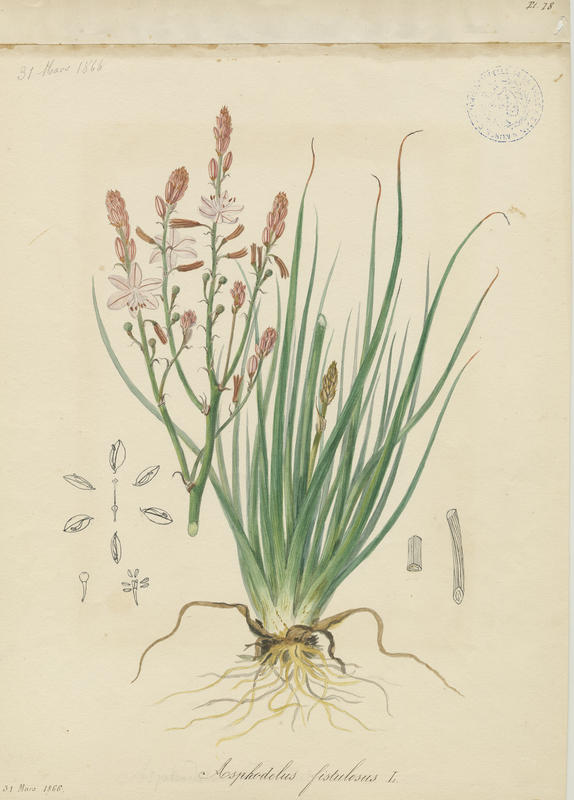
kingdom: Plantae
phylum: Tracheophyta
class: Liliopsida
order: Asparagales
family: Asphodelaceae
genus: Asphodelus
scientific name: Asphodelus fistulosus
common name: Onionweed
